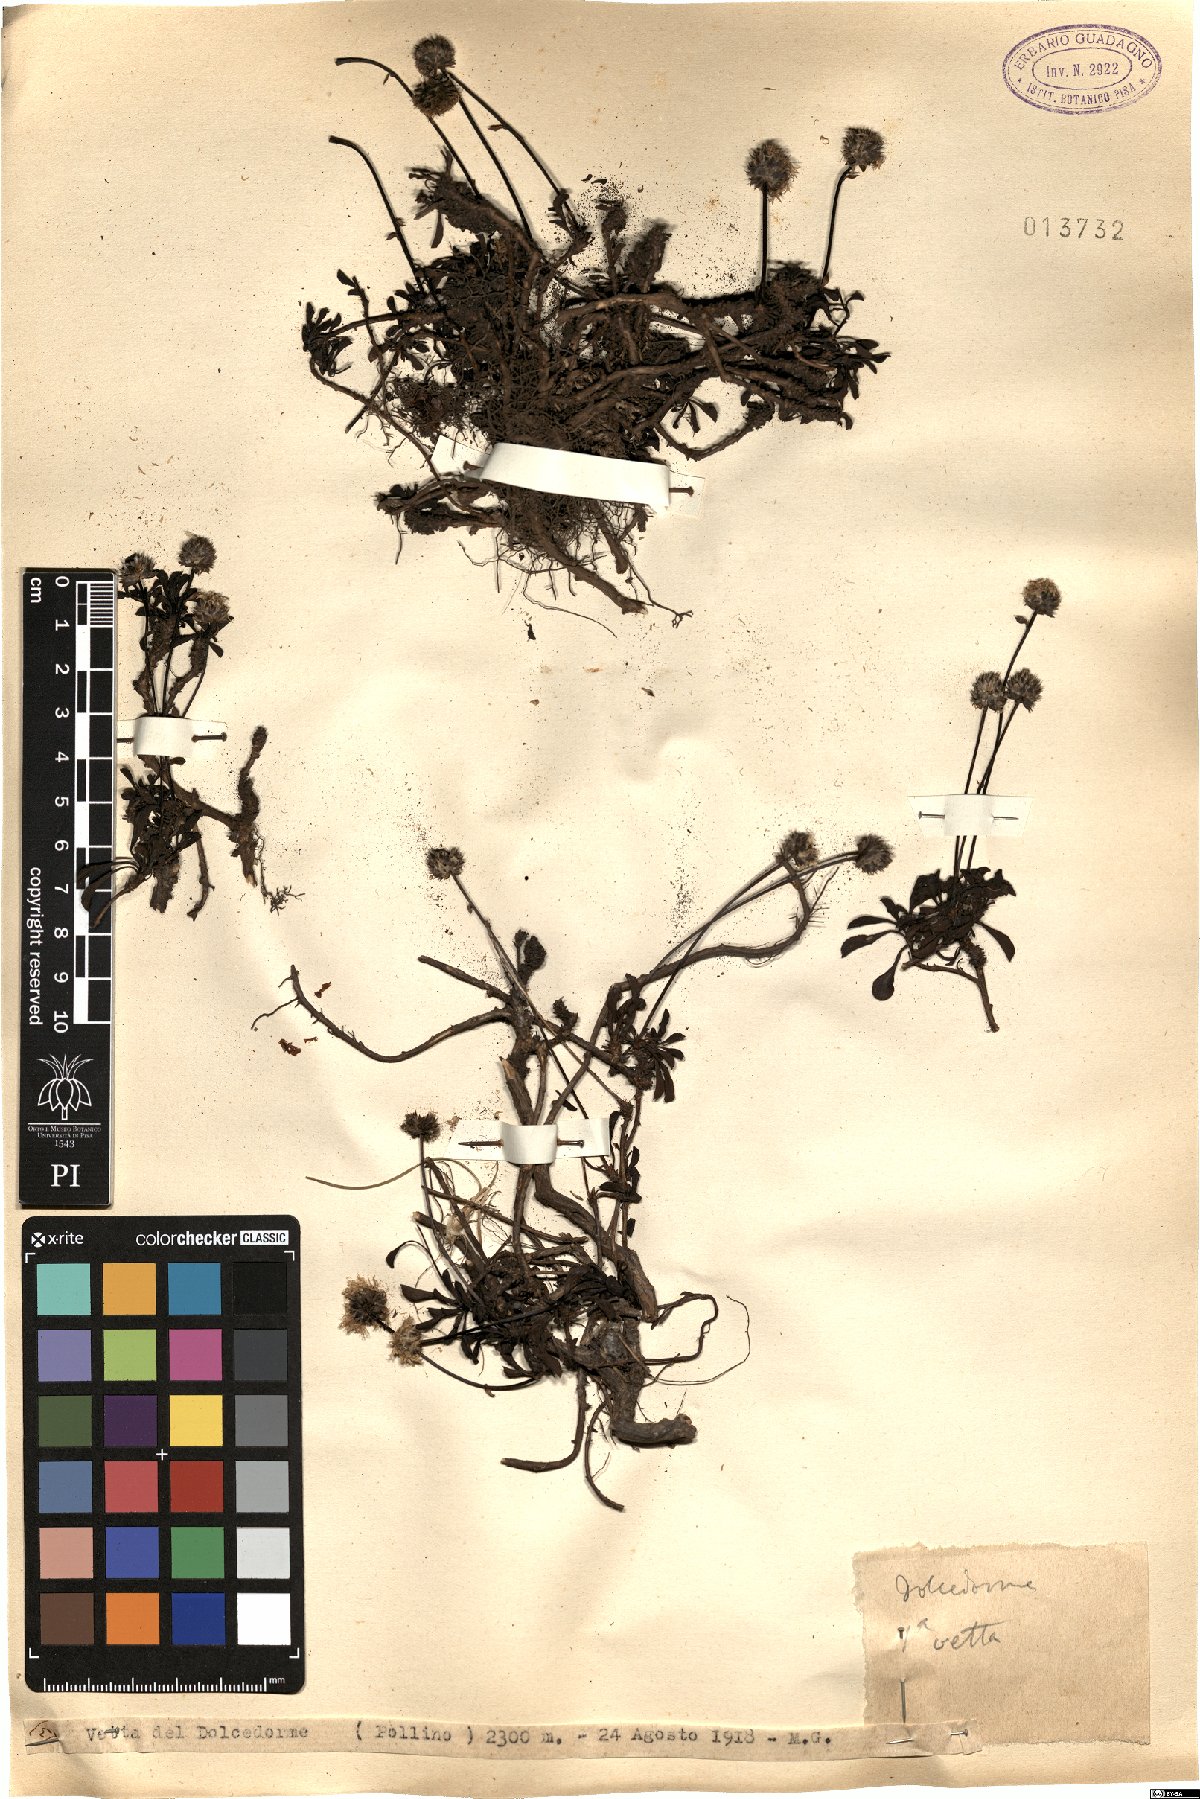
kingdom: Plantae
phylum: Tracheophyta
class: Magnoliopsida
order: Lamiales
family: Plantaginaceae
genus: Globularia
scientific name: Globularia
